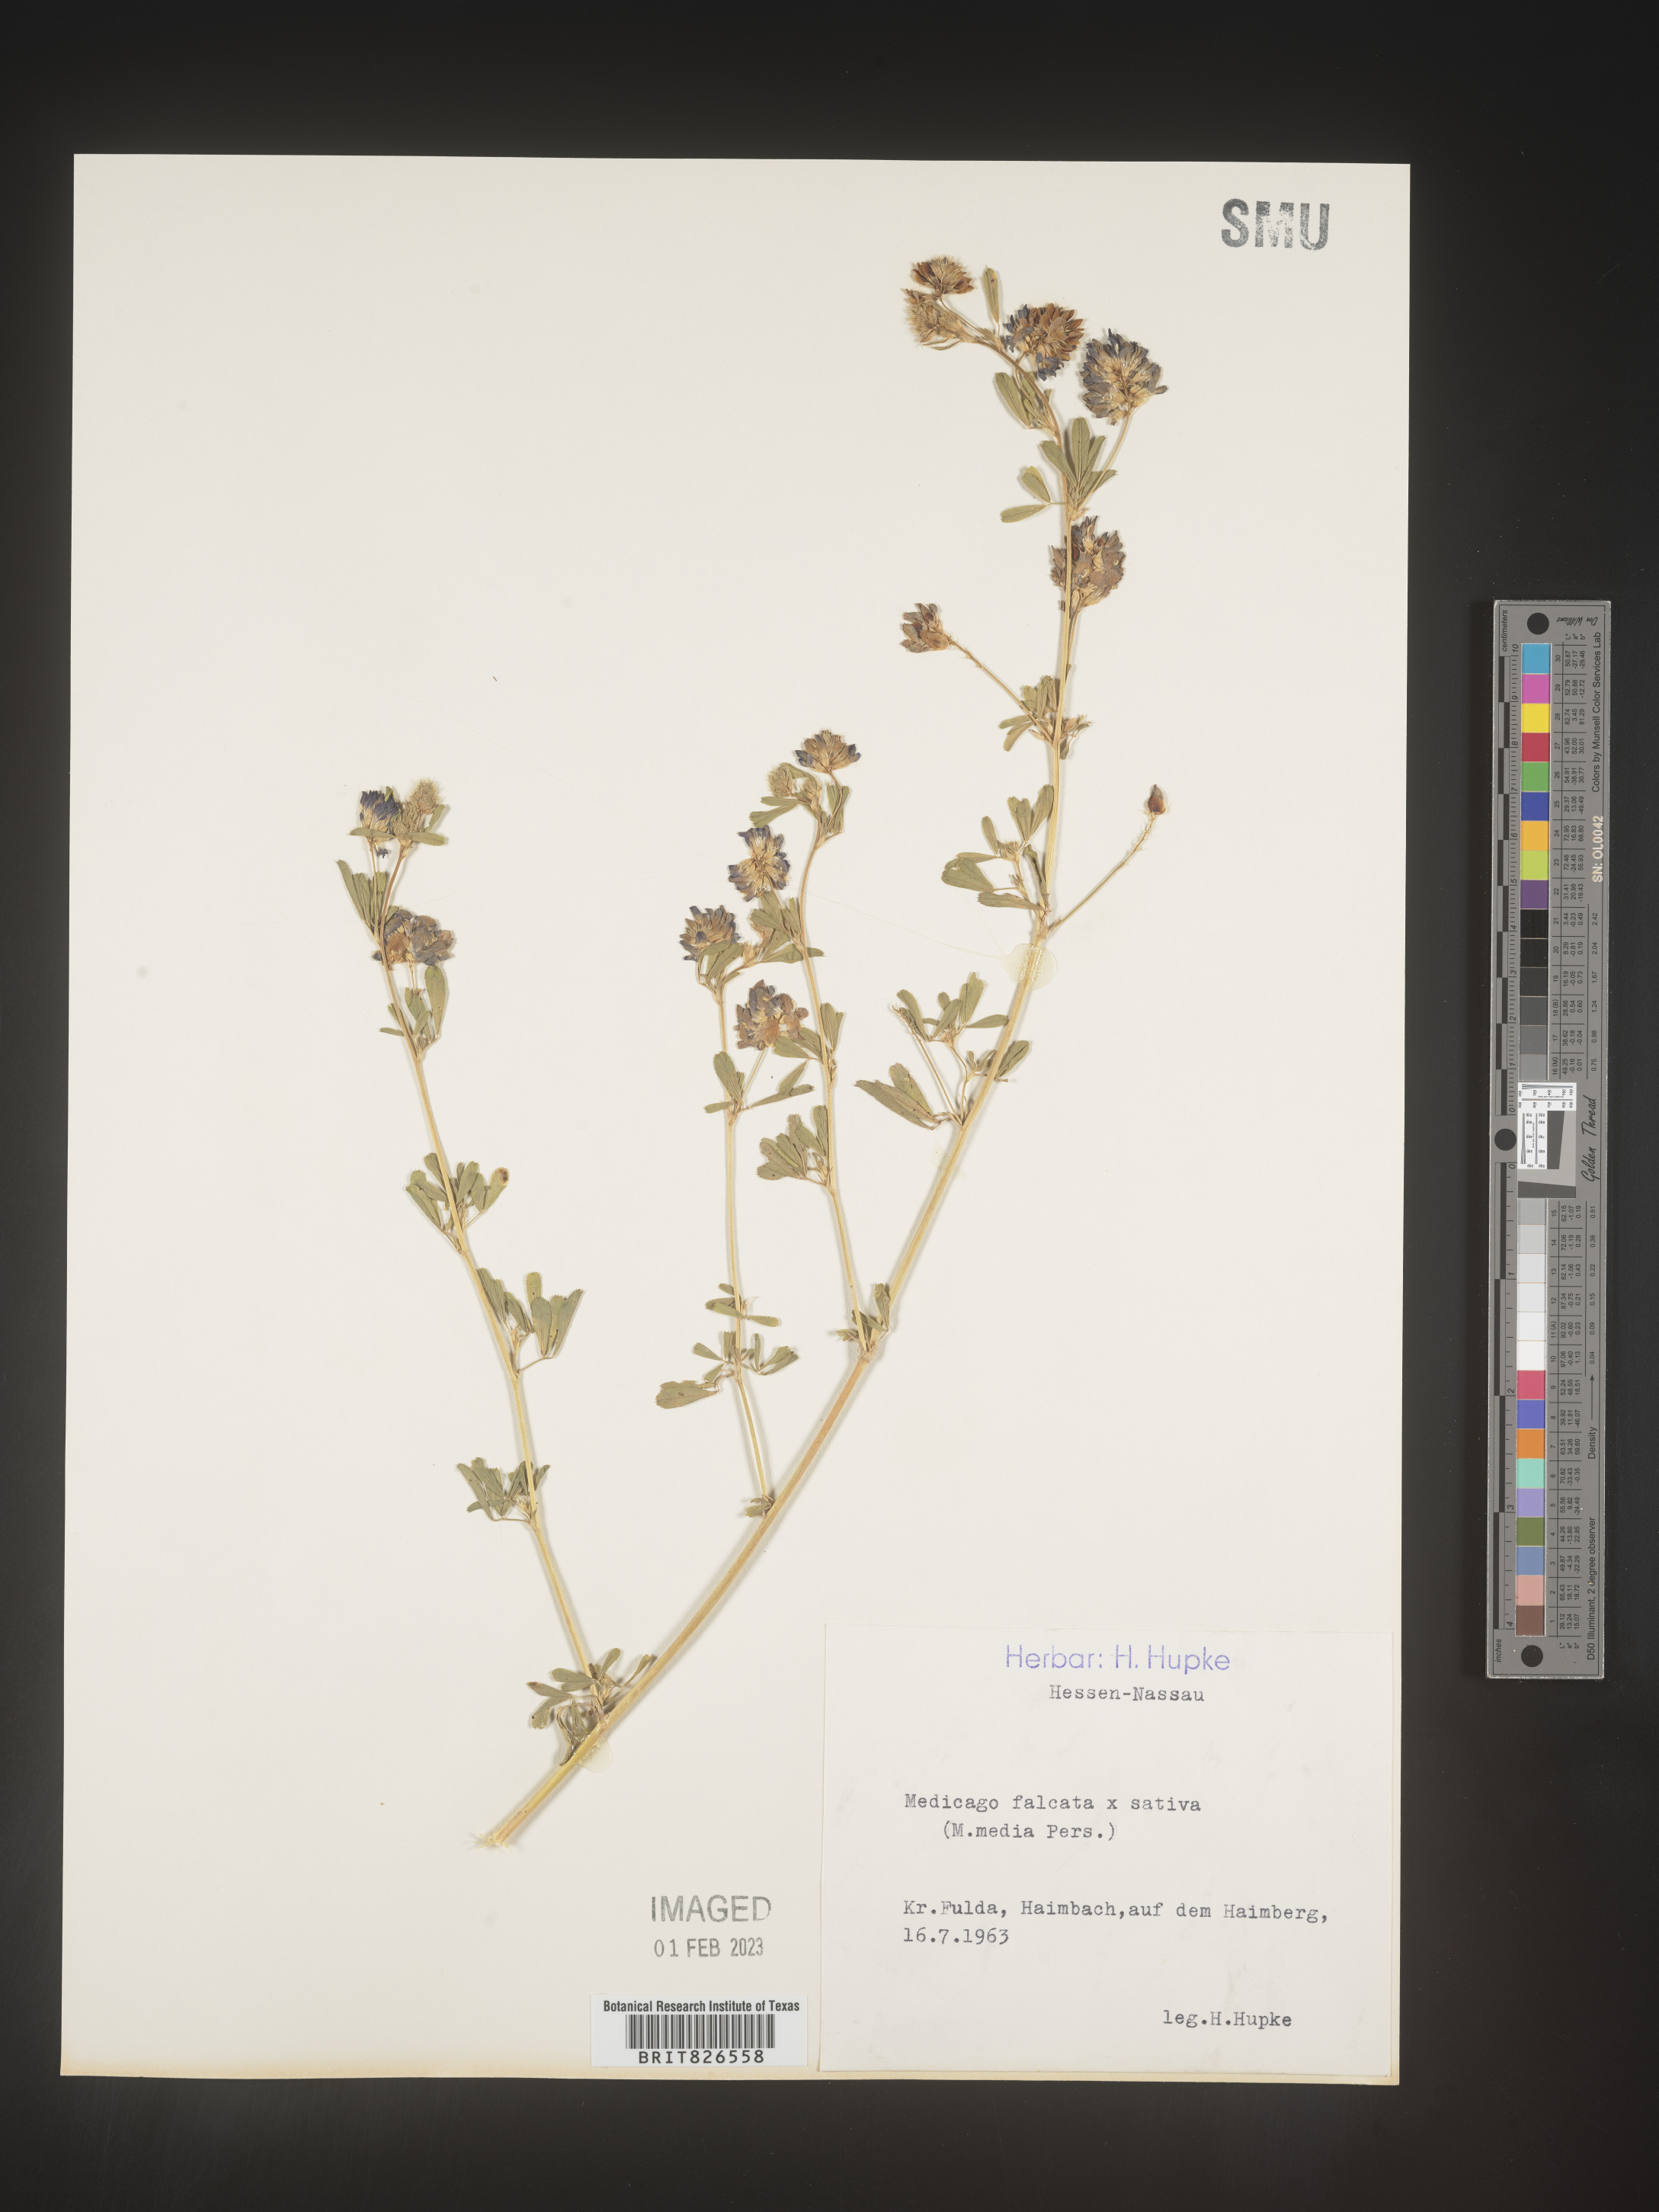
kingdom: Plantae
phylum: Tracheophyta
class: Magnoliopsida
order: Fabales
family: Fabaceae
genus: Medicago
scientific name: Medicago
